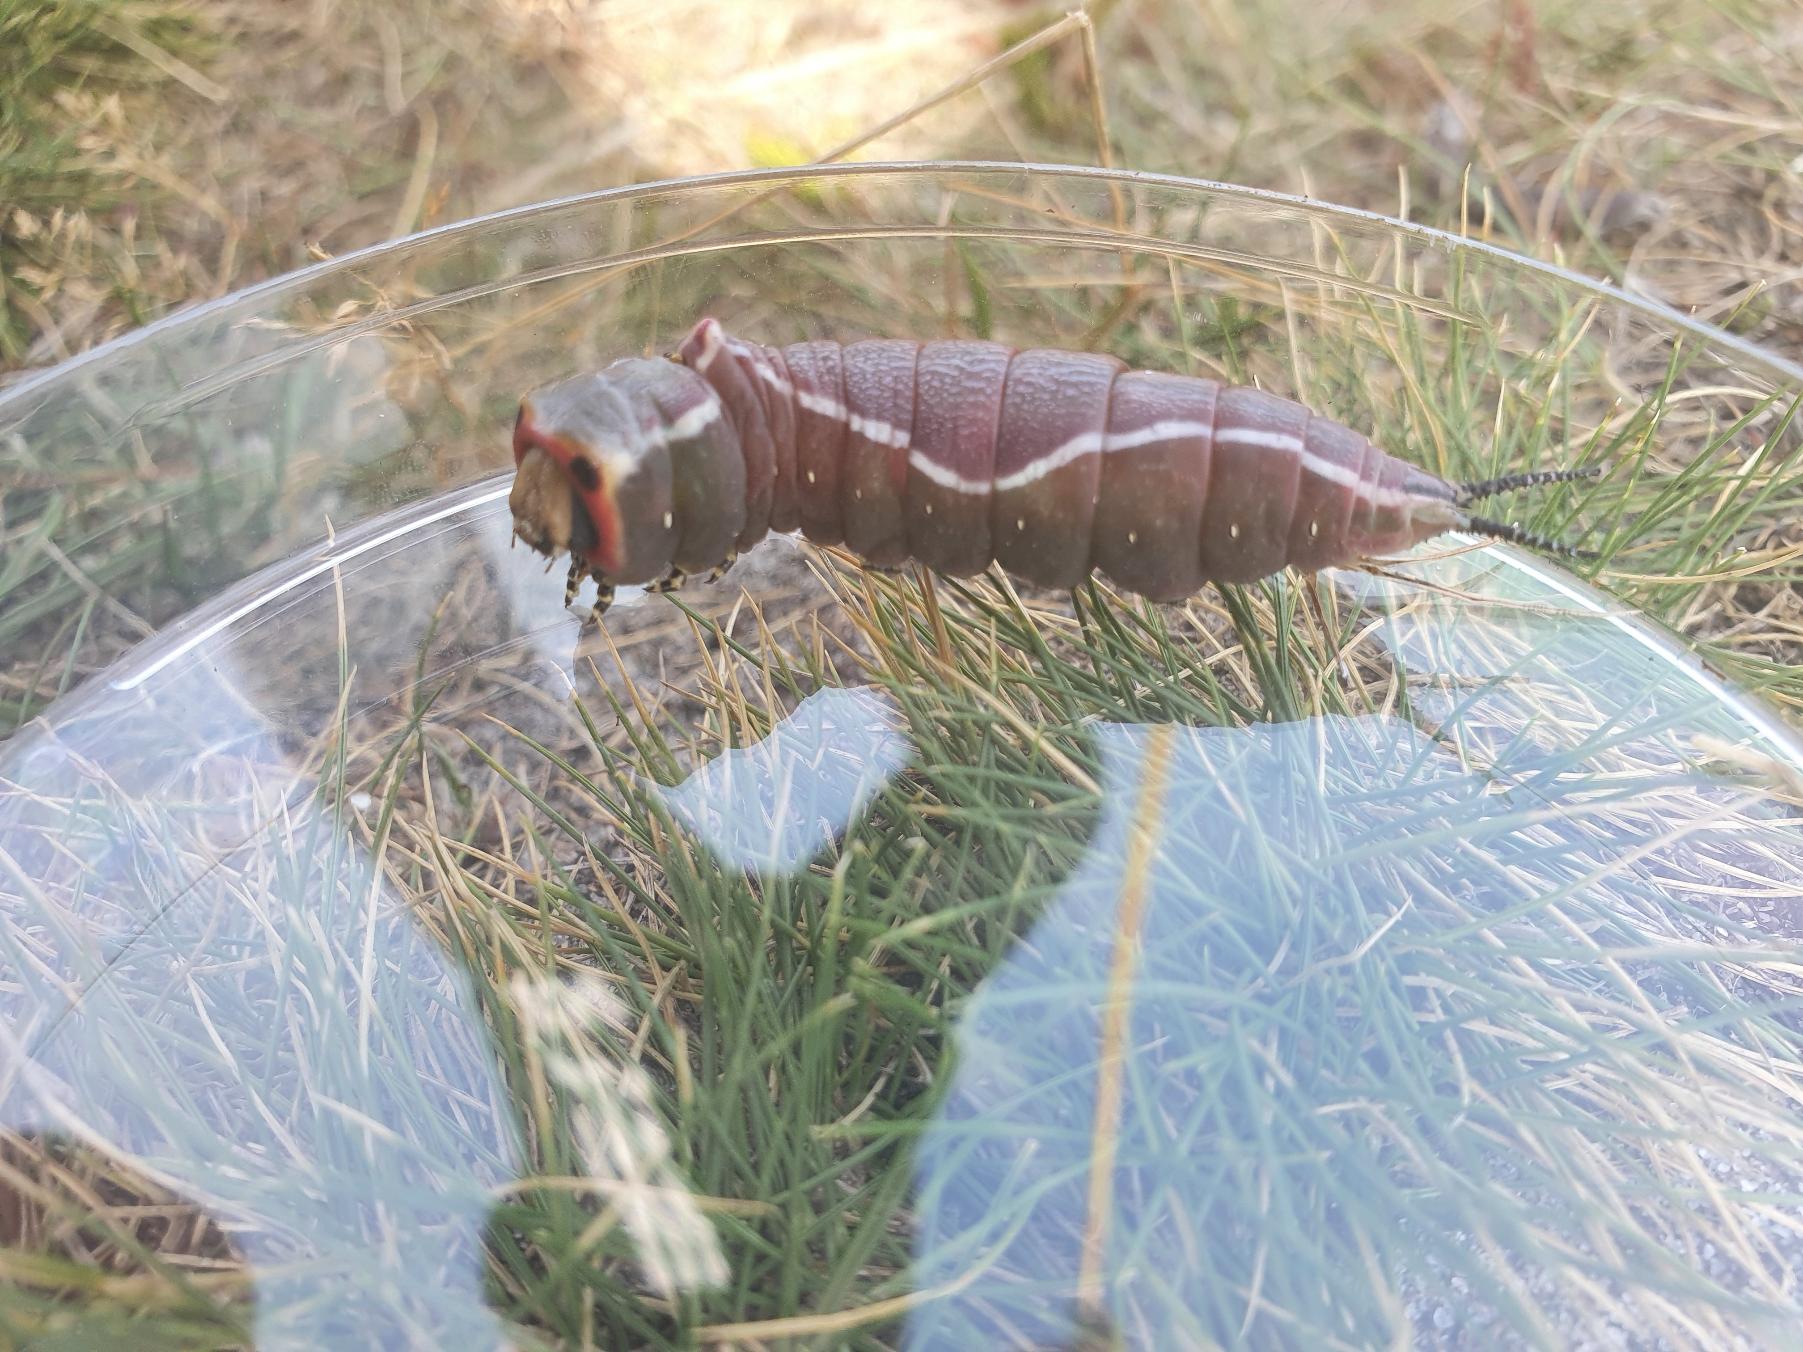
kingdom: Animalia
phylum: Arthropoda
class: Insecta
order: Lepidoptera
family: Notodontidae
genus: Cerura
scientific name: Cerura vinula
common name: Hermelinskåbe
